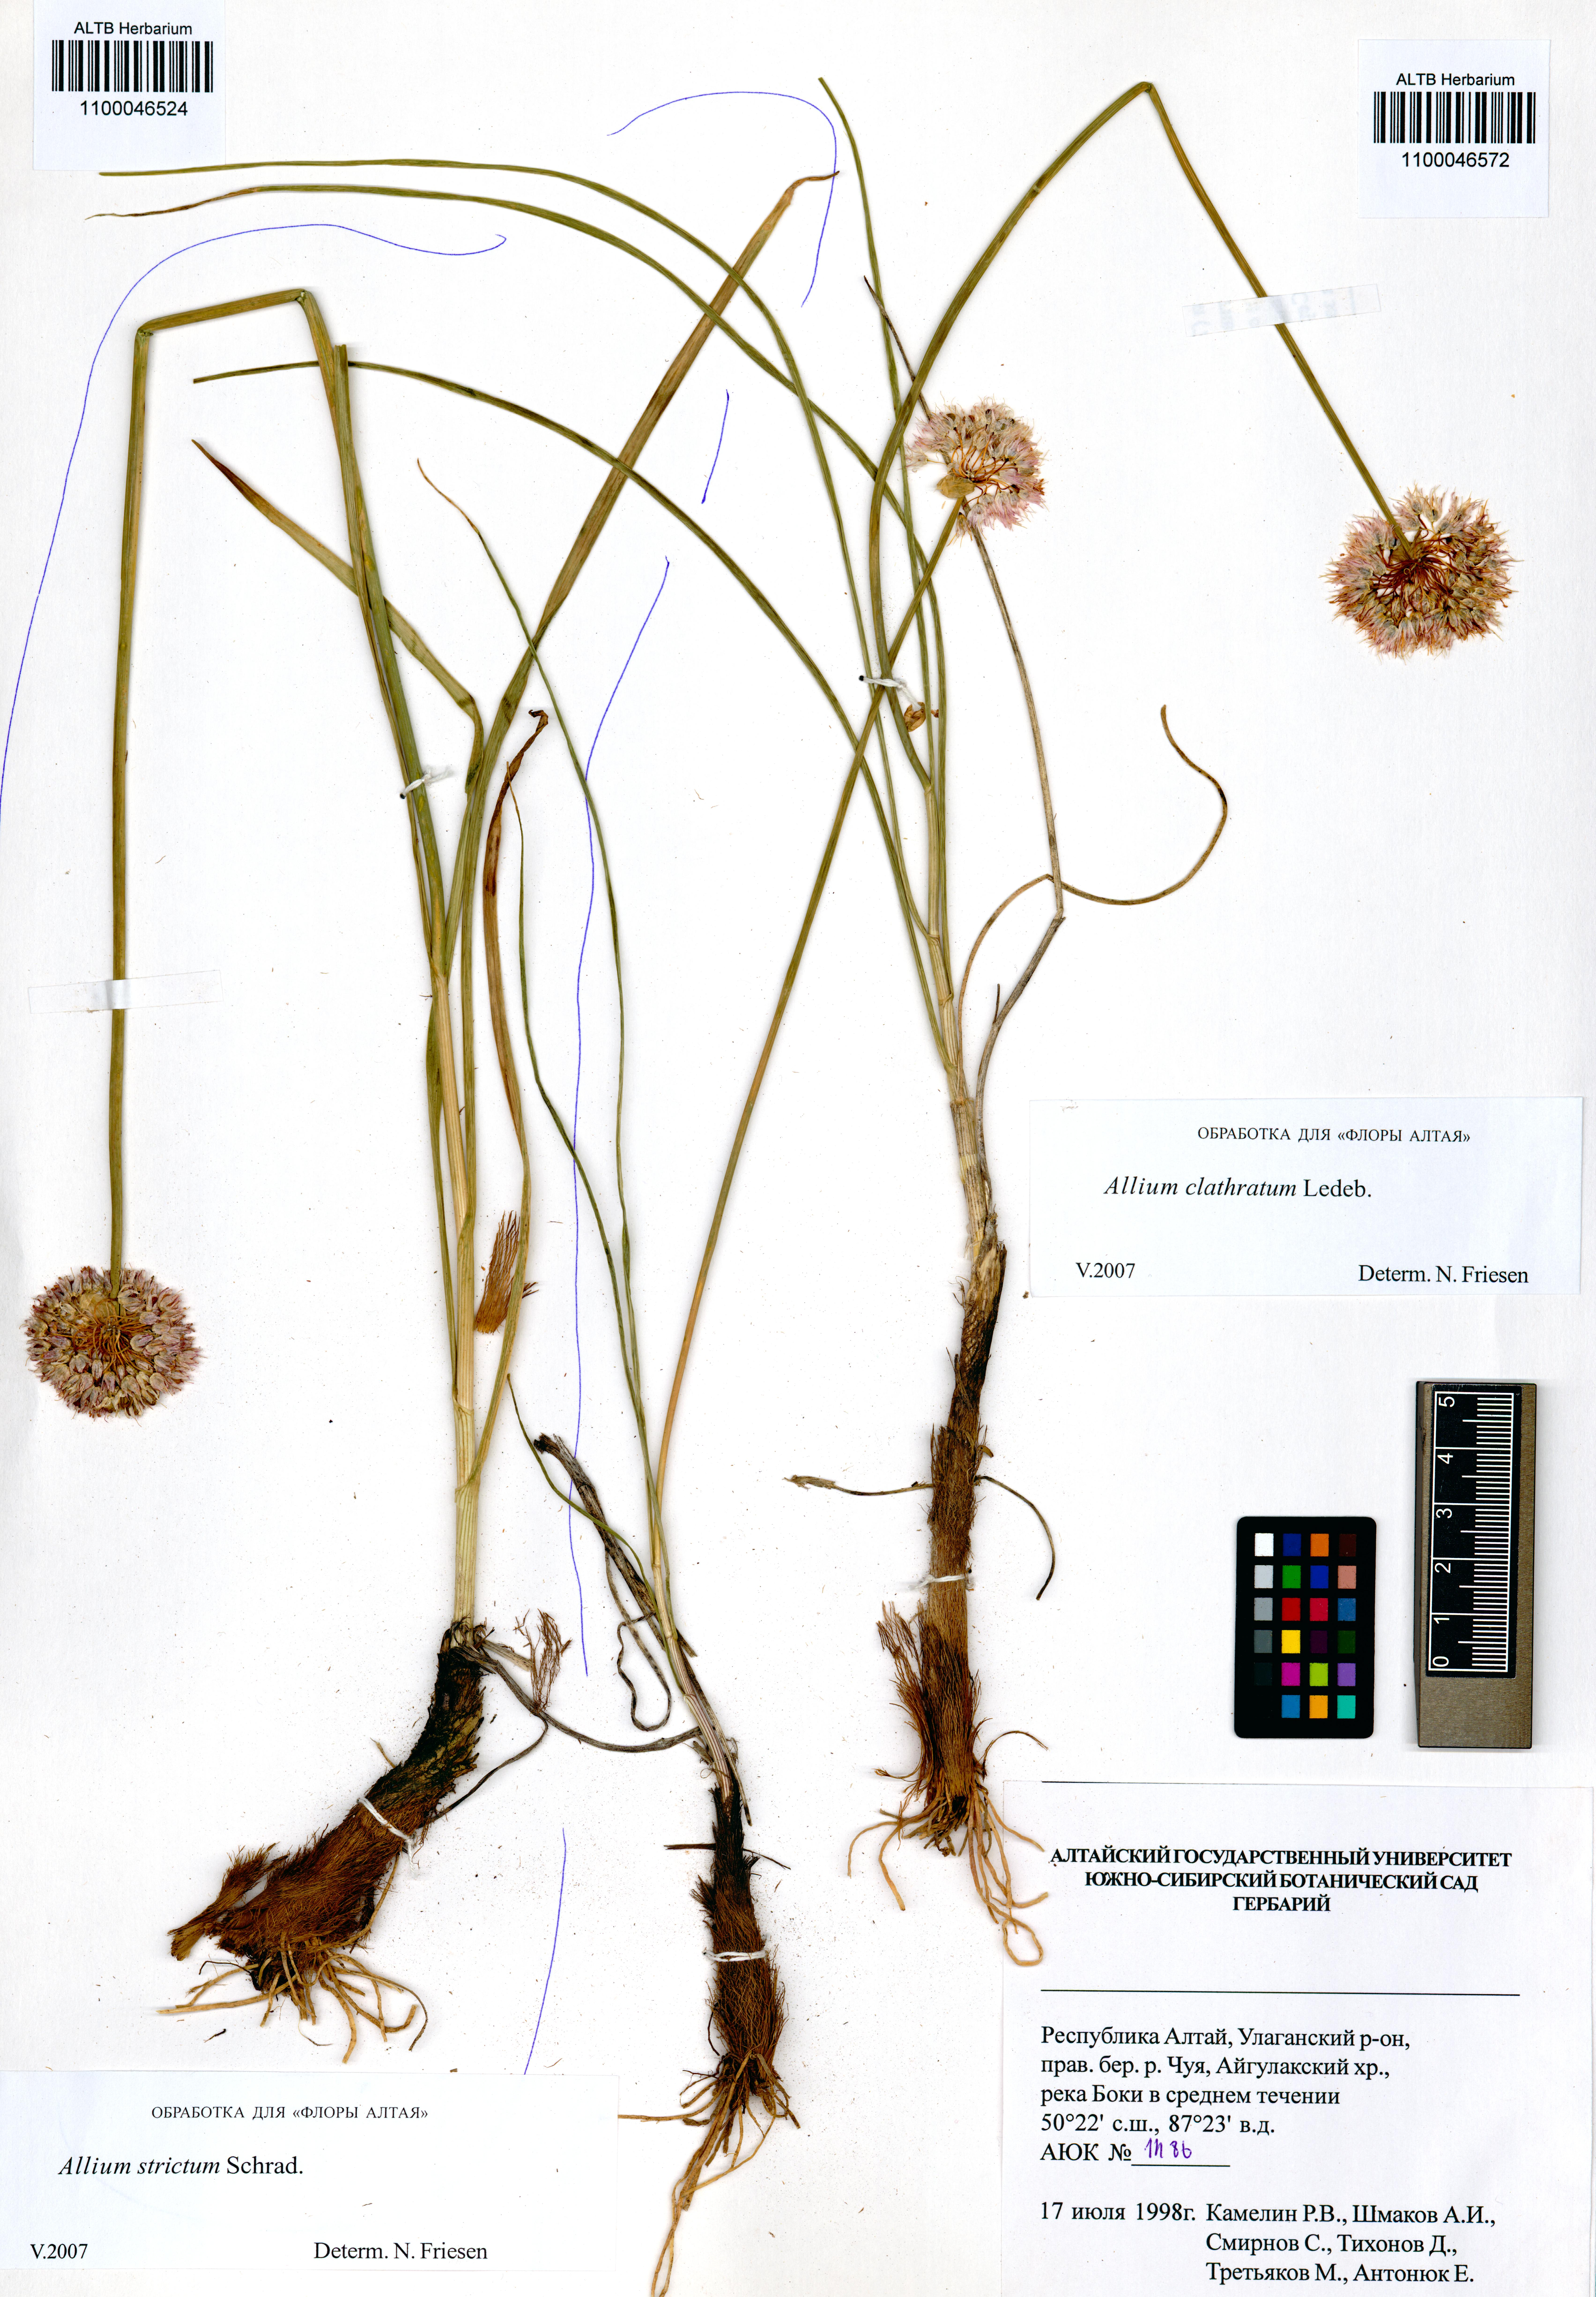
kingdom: Plantae
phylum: Tracheophyta
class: Liliopsida
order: Asparagales
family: Amaryllidaceae
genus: Allium
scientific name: Allium strictum
